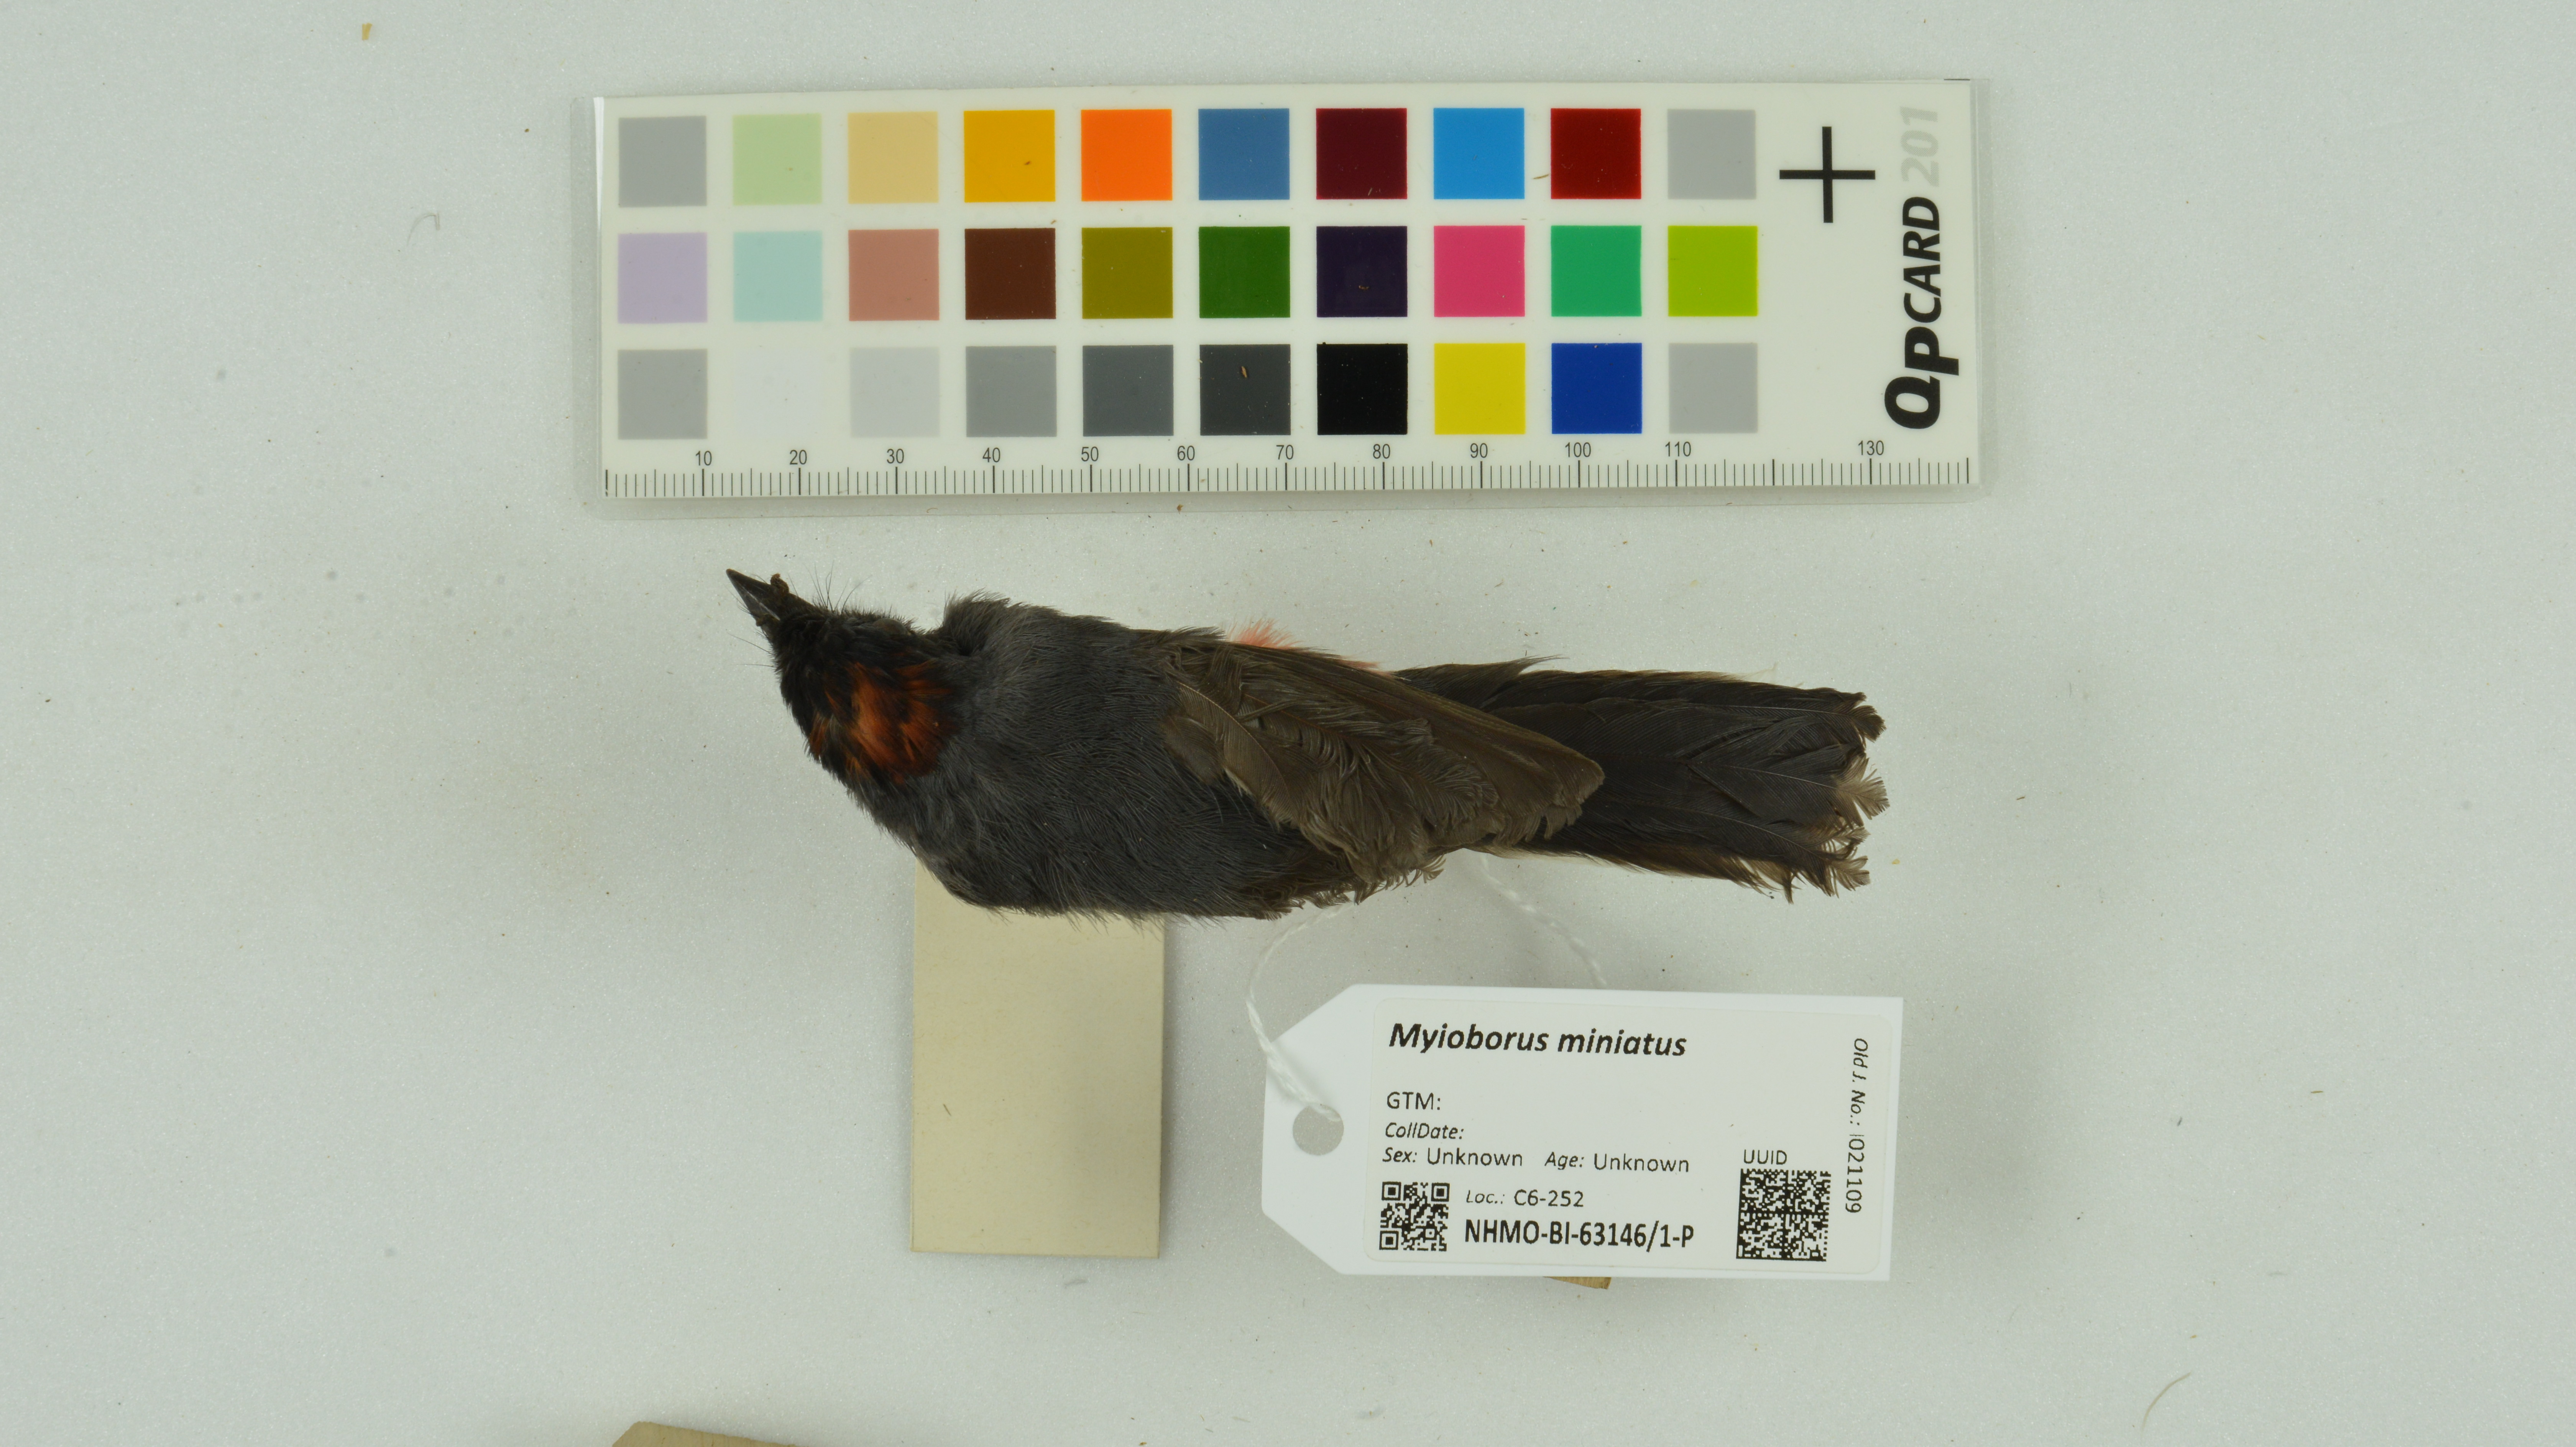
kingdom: Animalia
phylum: Chordata
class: Aves
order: Passeriformes
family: Parulidae
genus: Myioborus
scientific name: Myioborus miniatus
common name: Slate-throated redstart
